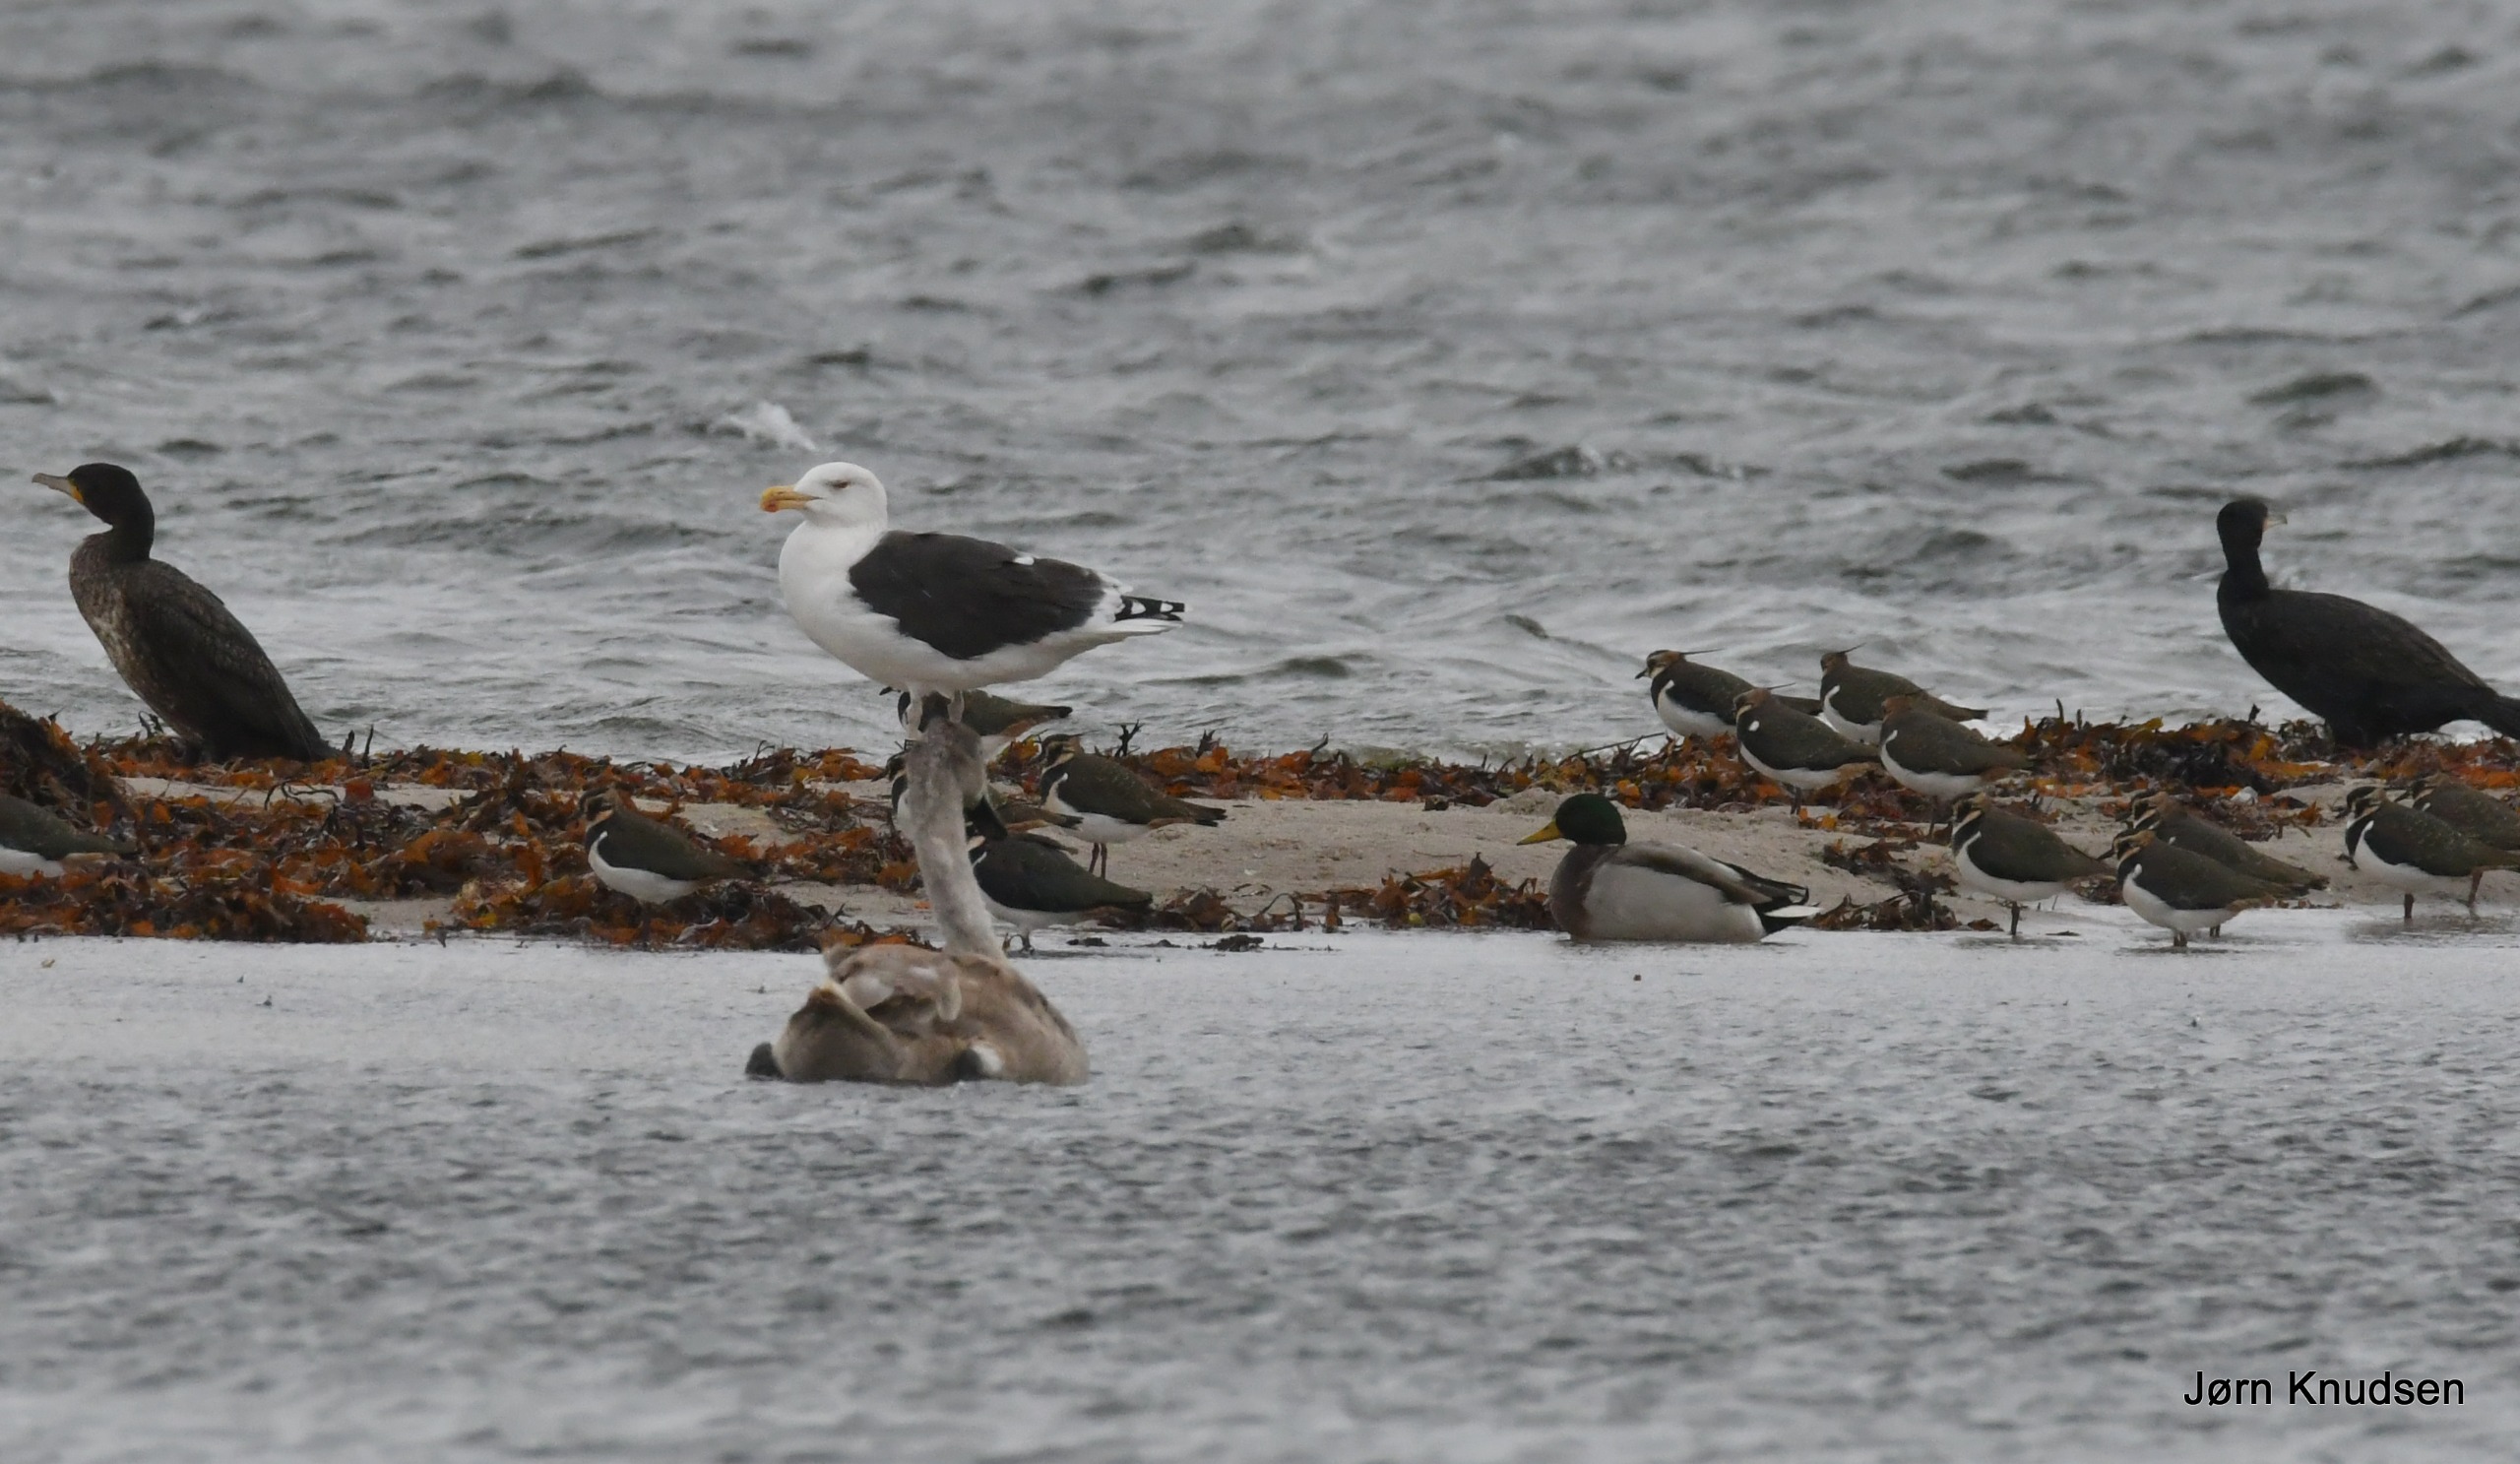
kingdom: Animalia
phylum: Chordata
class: Aves
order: Charadriiformes
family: Charadriidae
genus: Vanellus
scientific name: Vanellus vanellus
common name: Vibe
